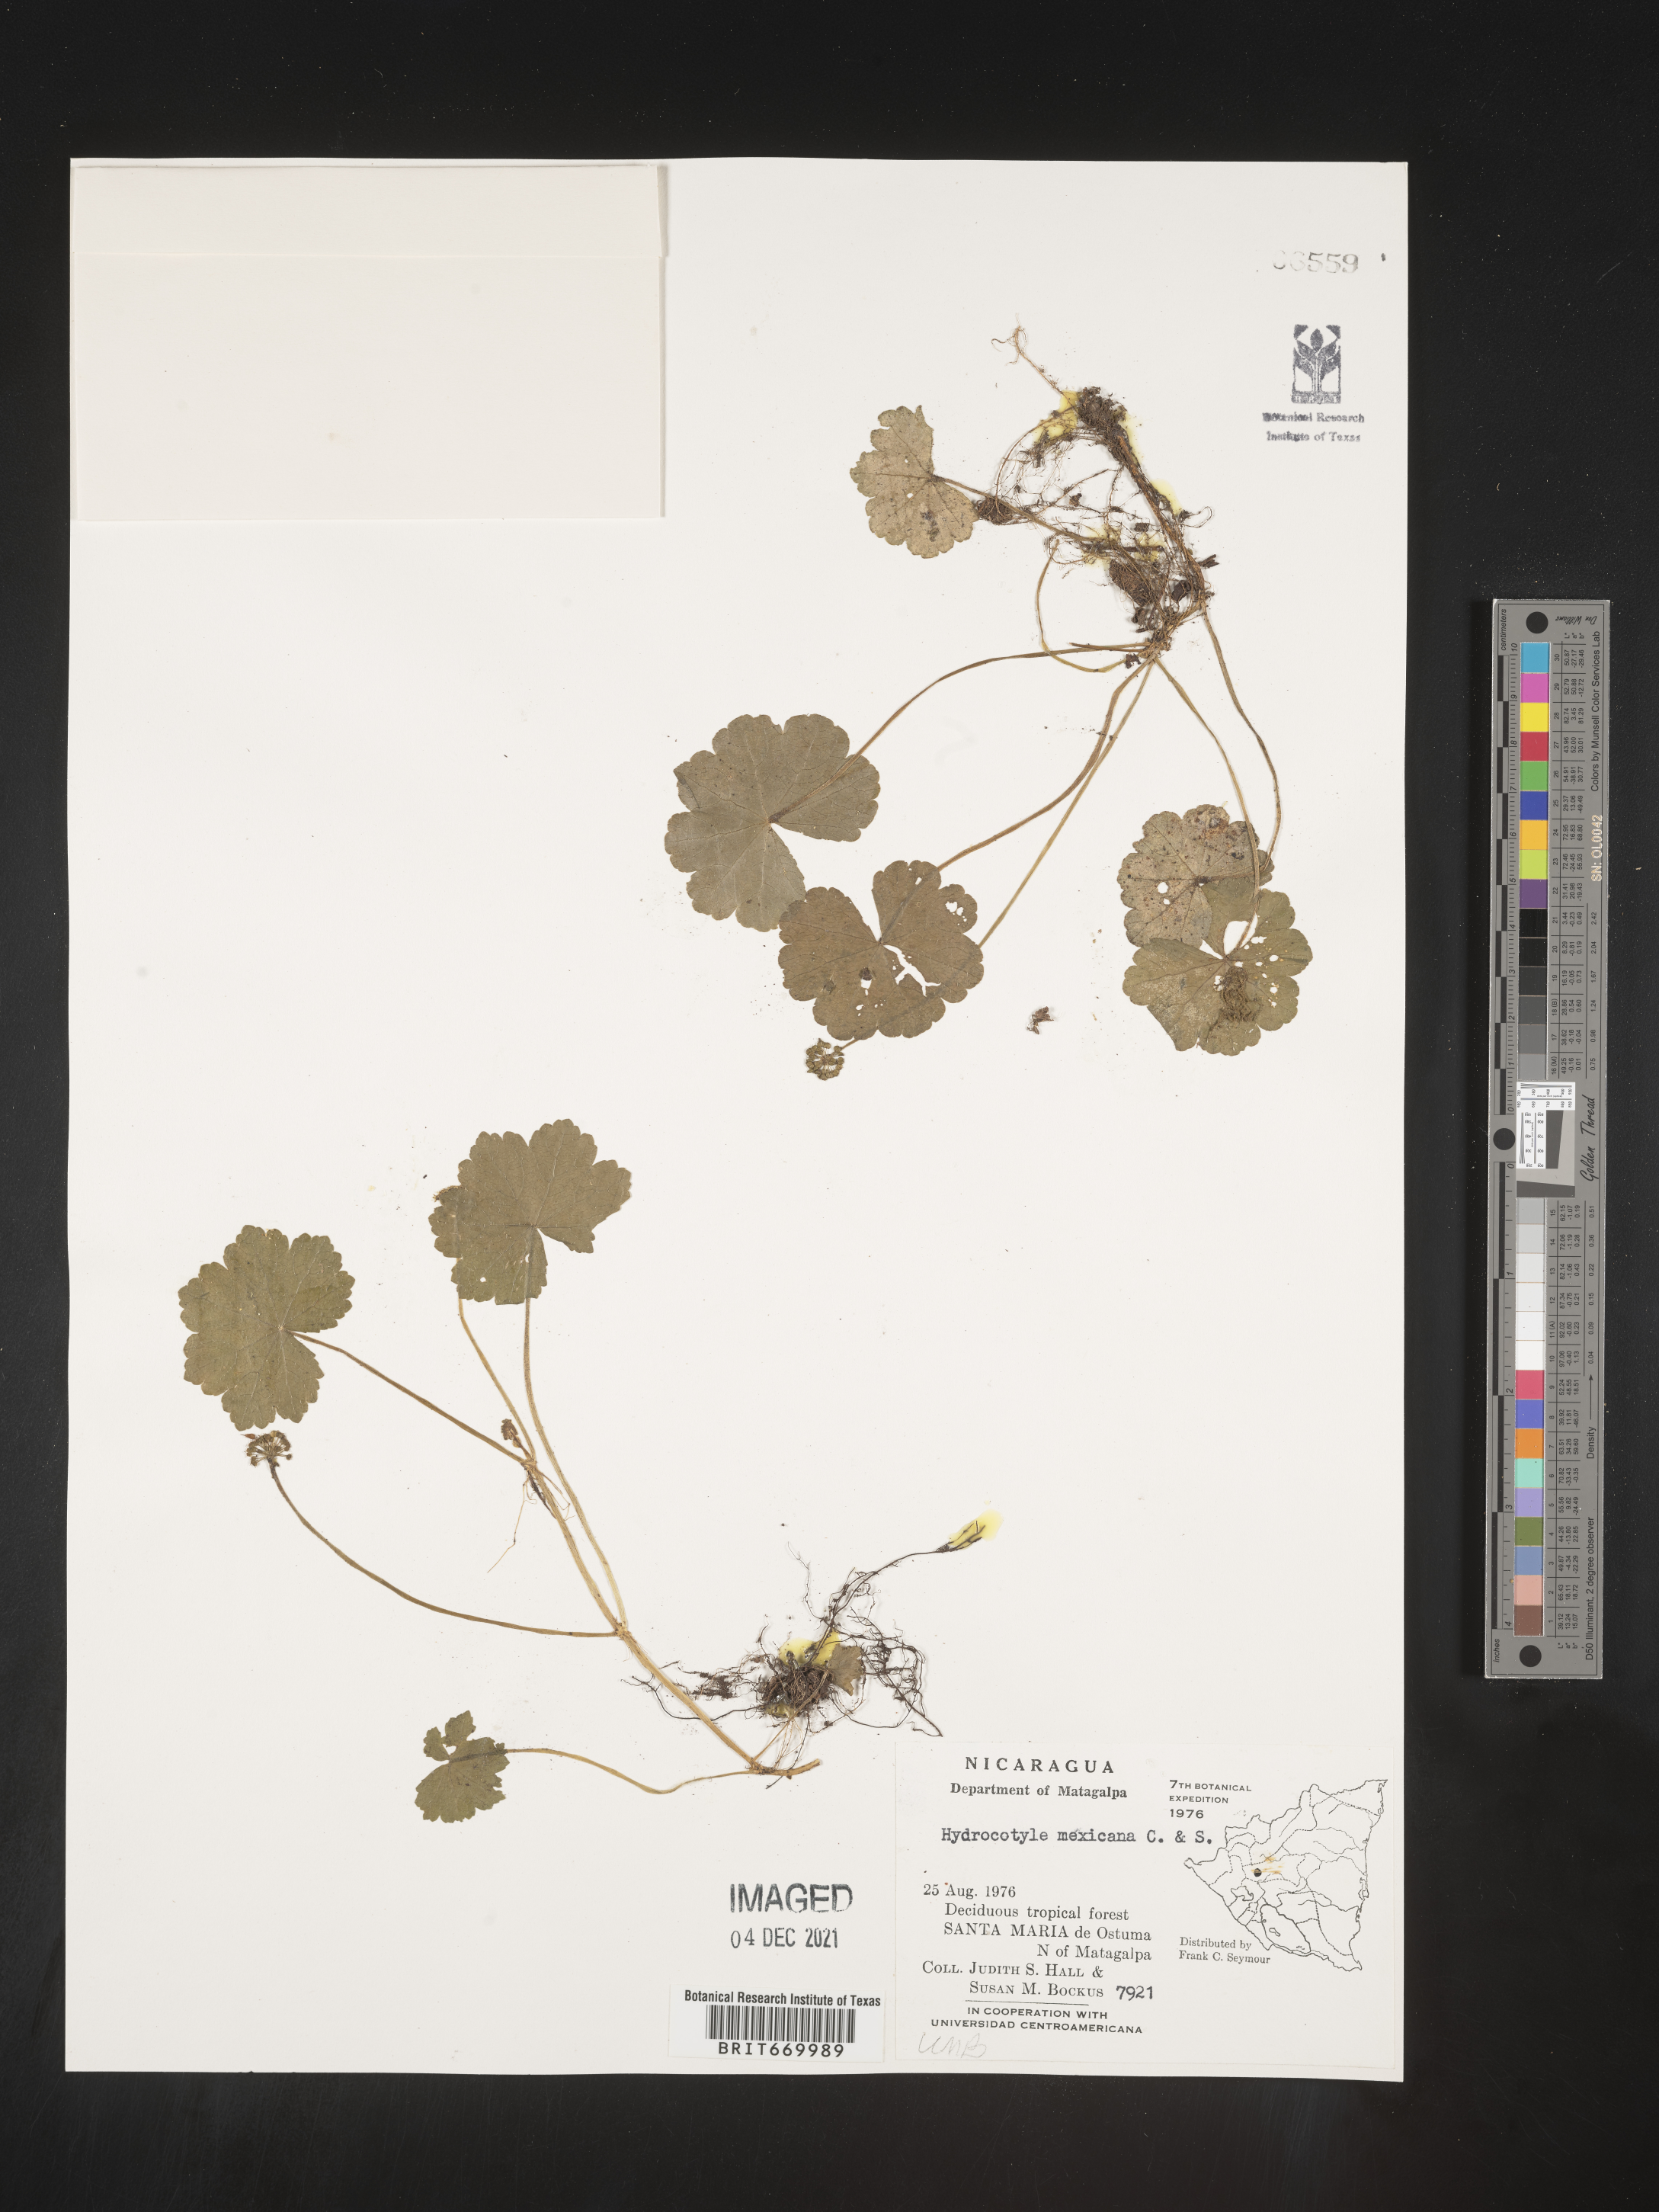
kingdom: Plantae
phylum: Tracheophyta
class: Magnoliopsida
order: Apiales
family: Araliaceae
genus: Hydrocotyle
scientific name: Hydrocotyle
